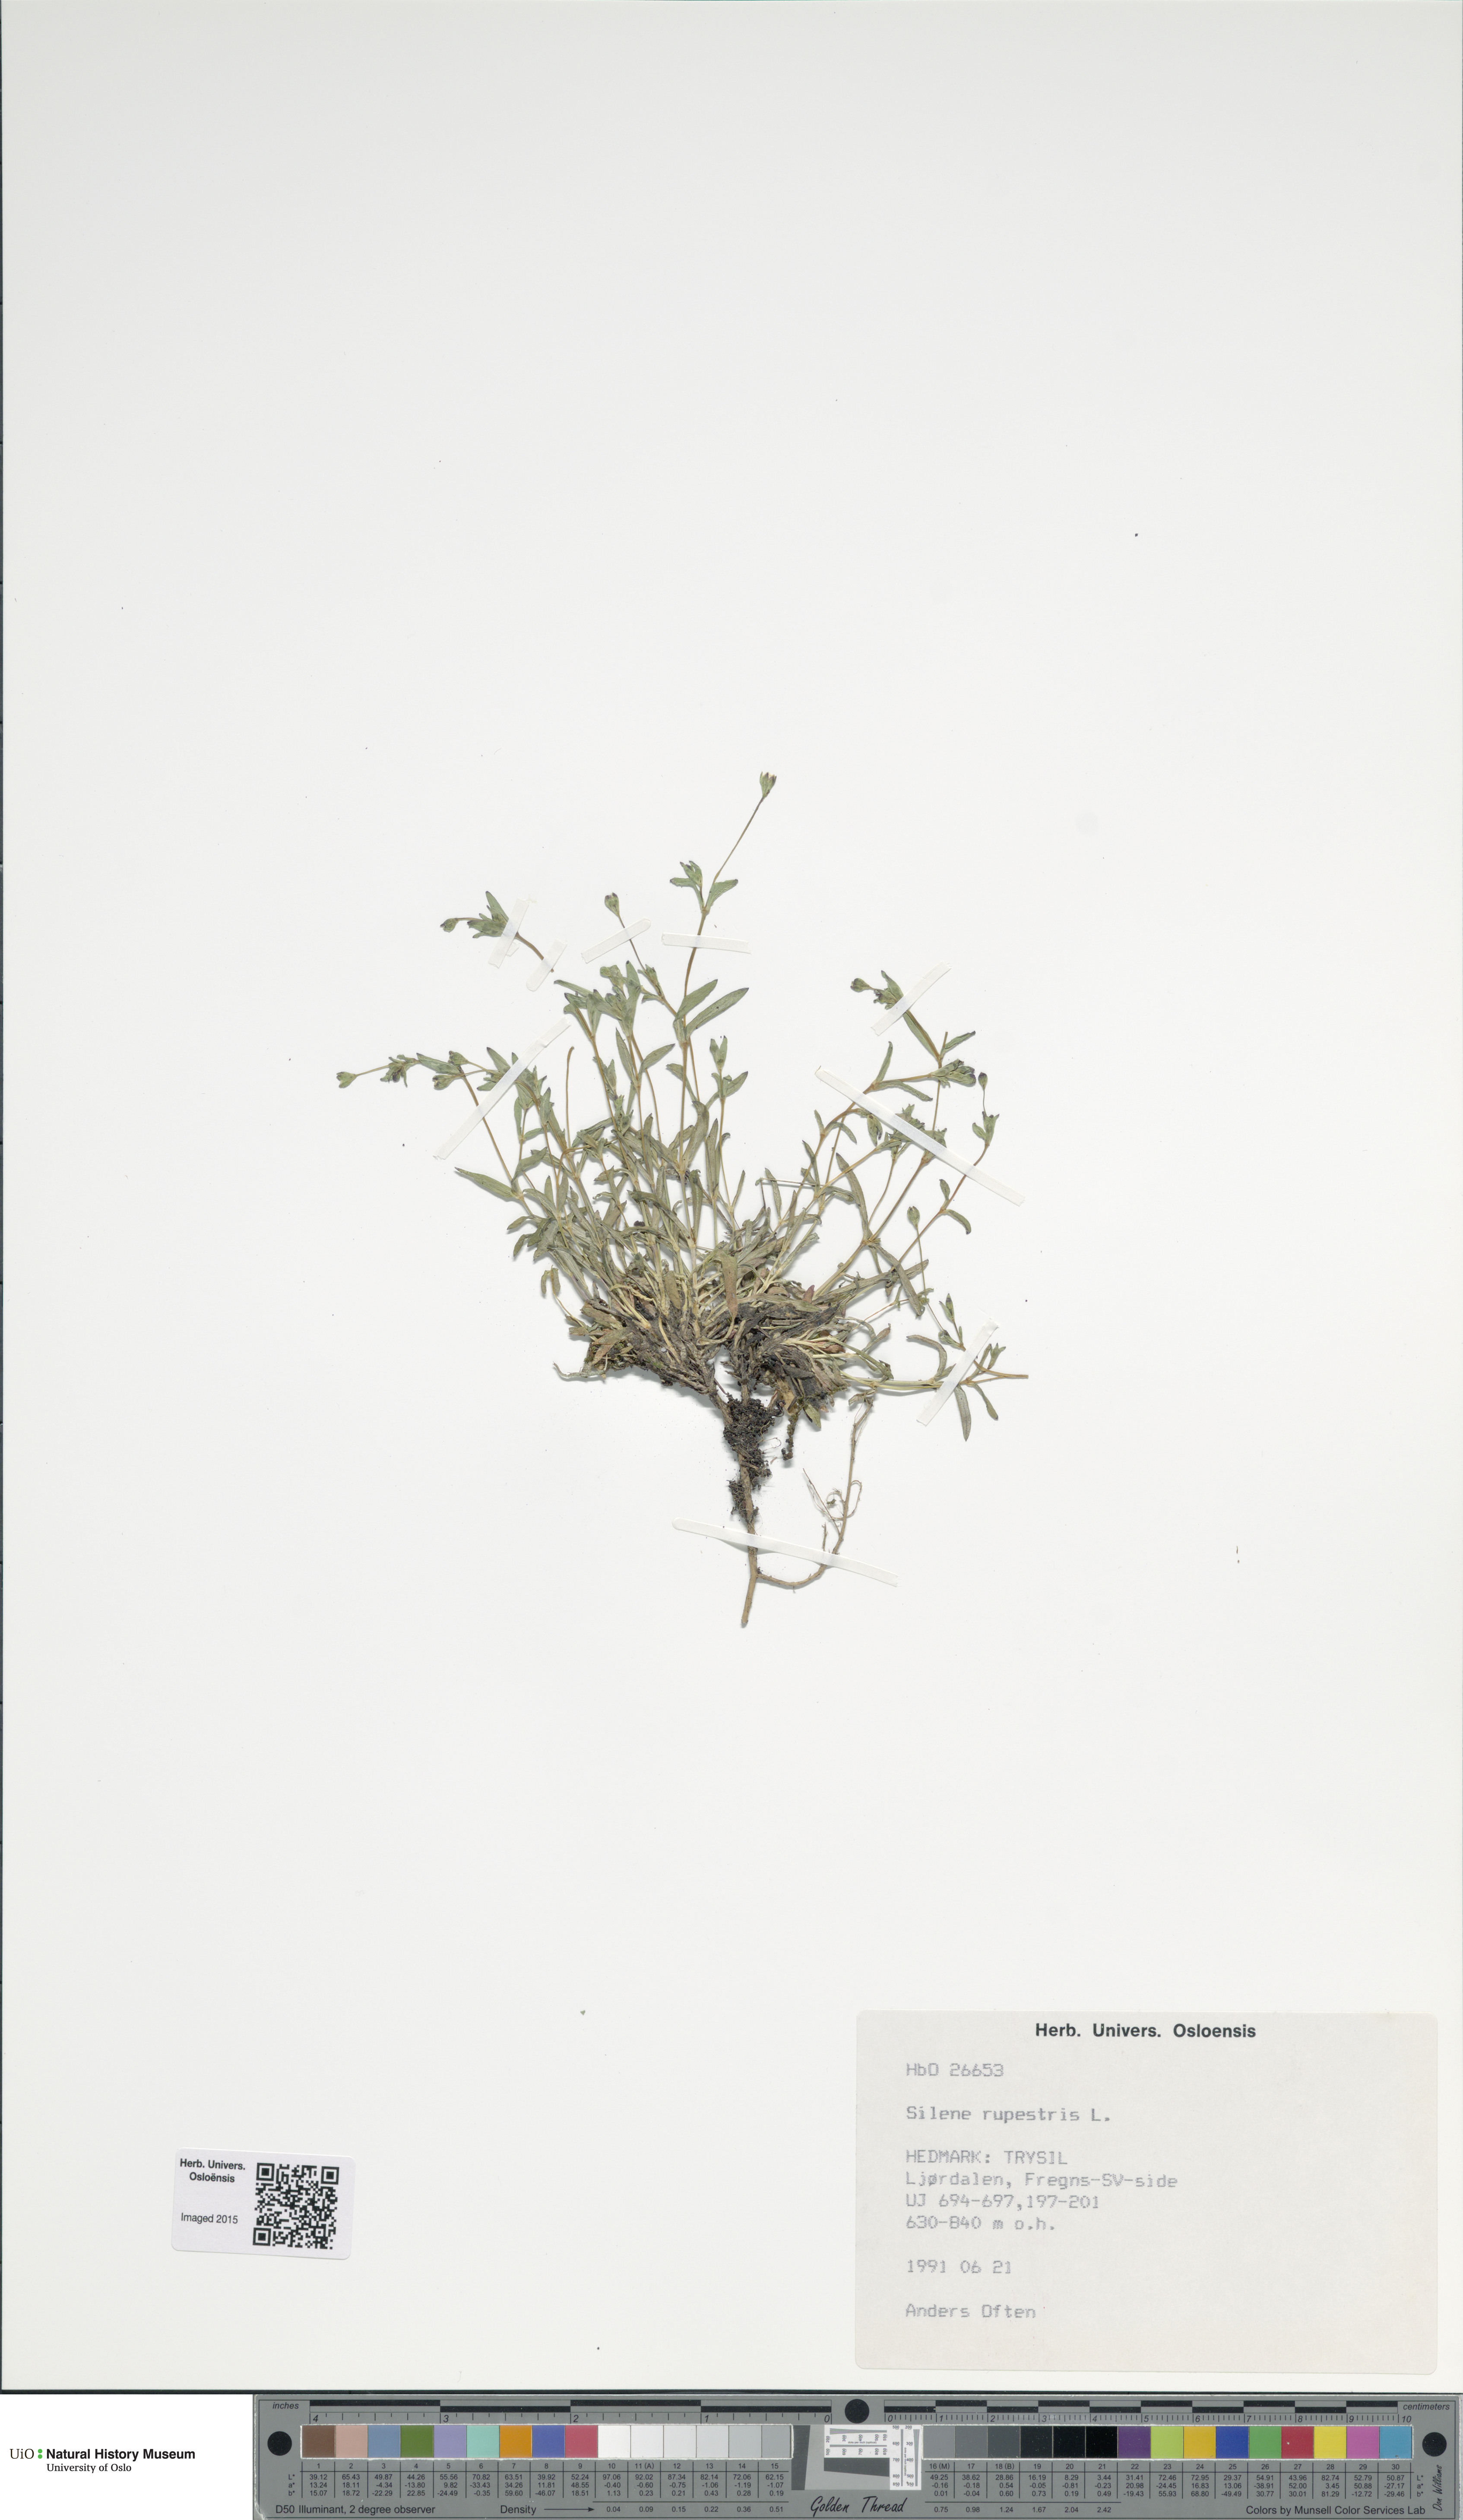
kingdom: Plantae
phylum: Tracheophyta
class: Magnoliopsida
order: Caryophyllales
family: Caryophyllaceae
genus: Atocion
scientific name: Atocion rupestre
